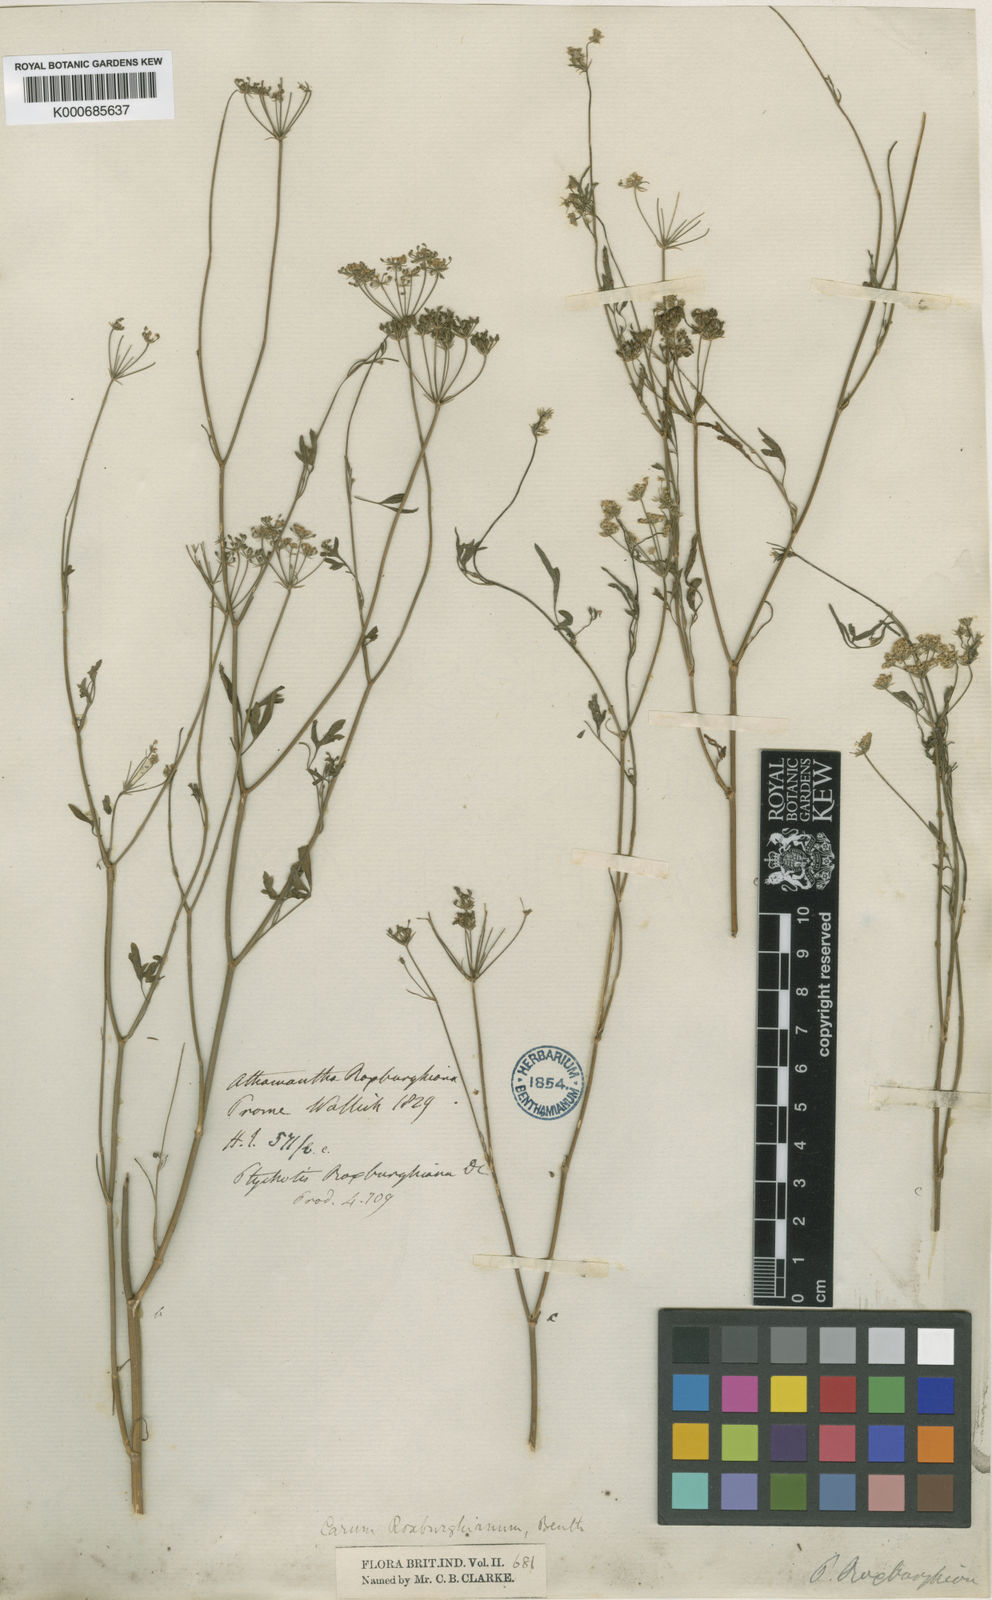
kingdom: Plantae
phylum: Tracheophyta
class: Magnoliopsida
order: Apiales
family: Apiaceae
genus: Psammogeton
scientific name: Psammogeton involucratum
